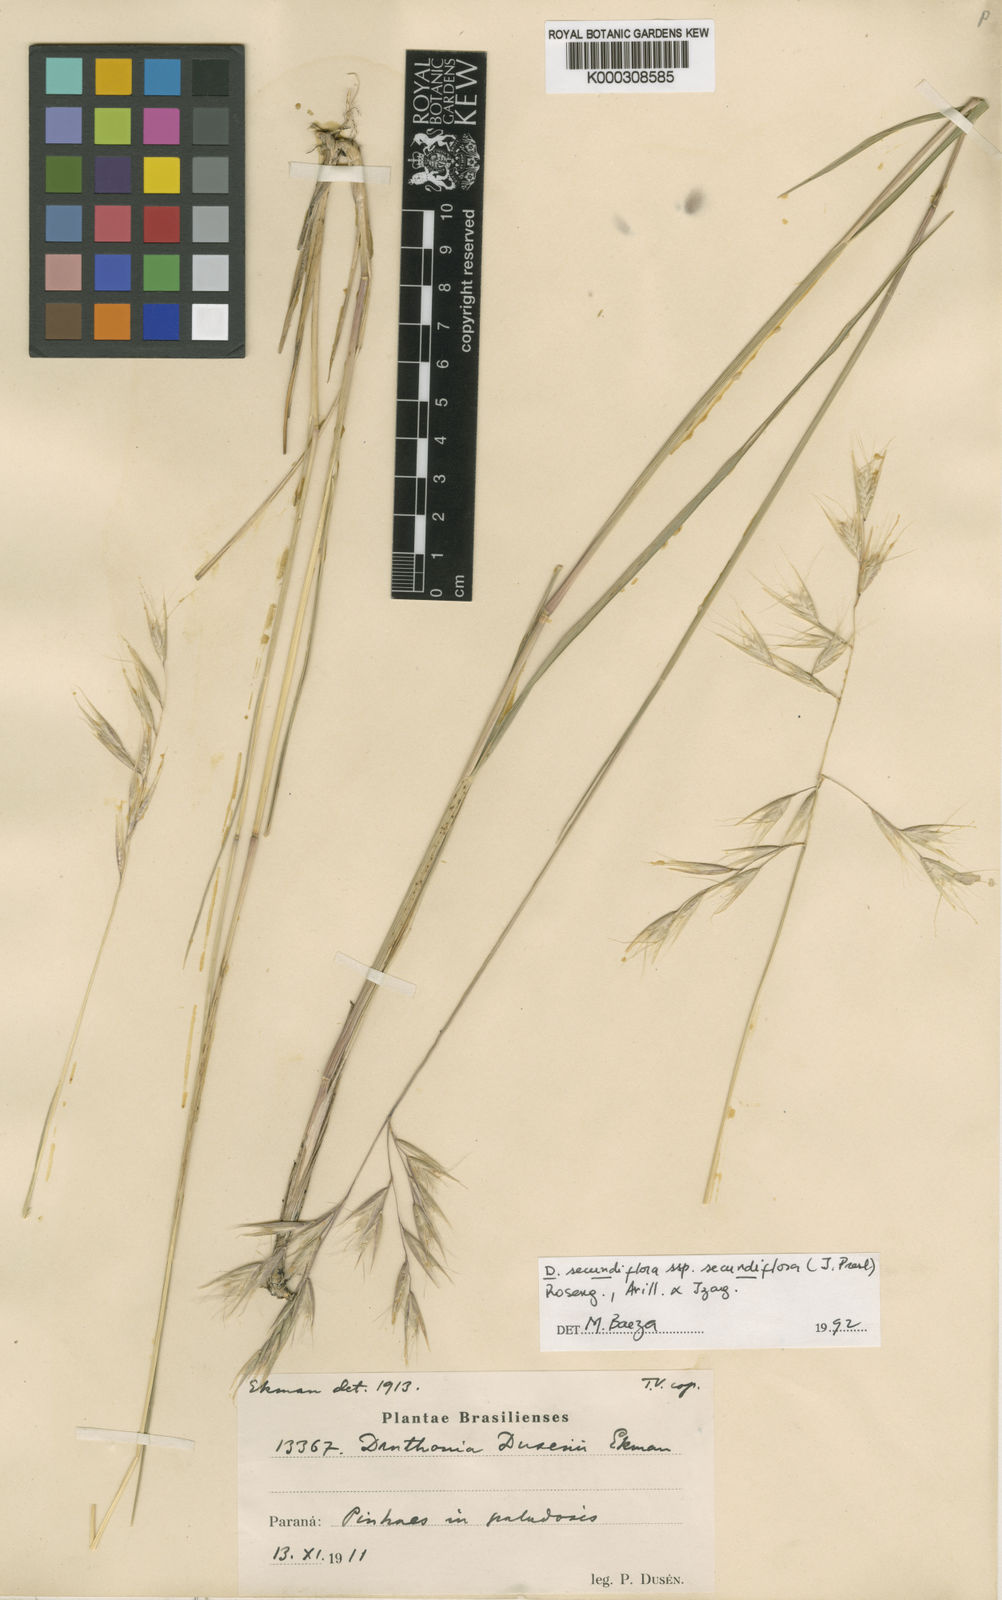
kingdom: Plantae
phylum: Tracheophyta
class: Liliopsida
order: Poales
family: Poaceae
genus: Danthonia
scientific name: Danthonia secundiflora
